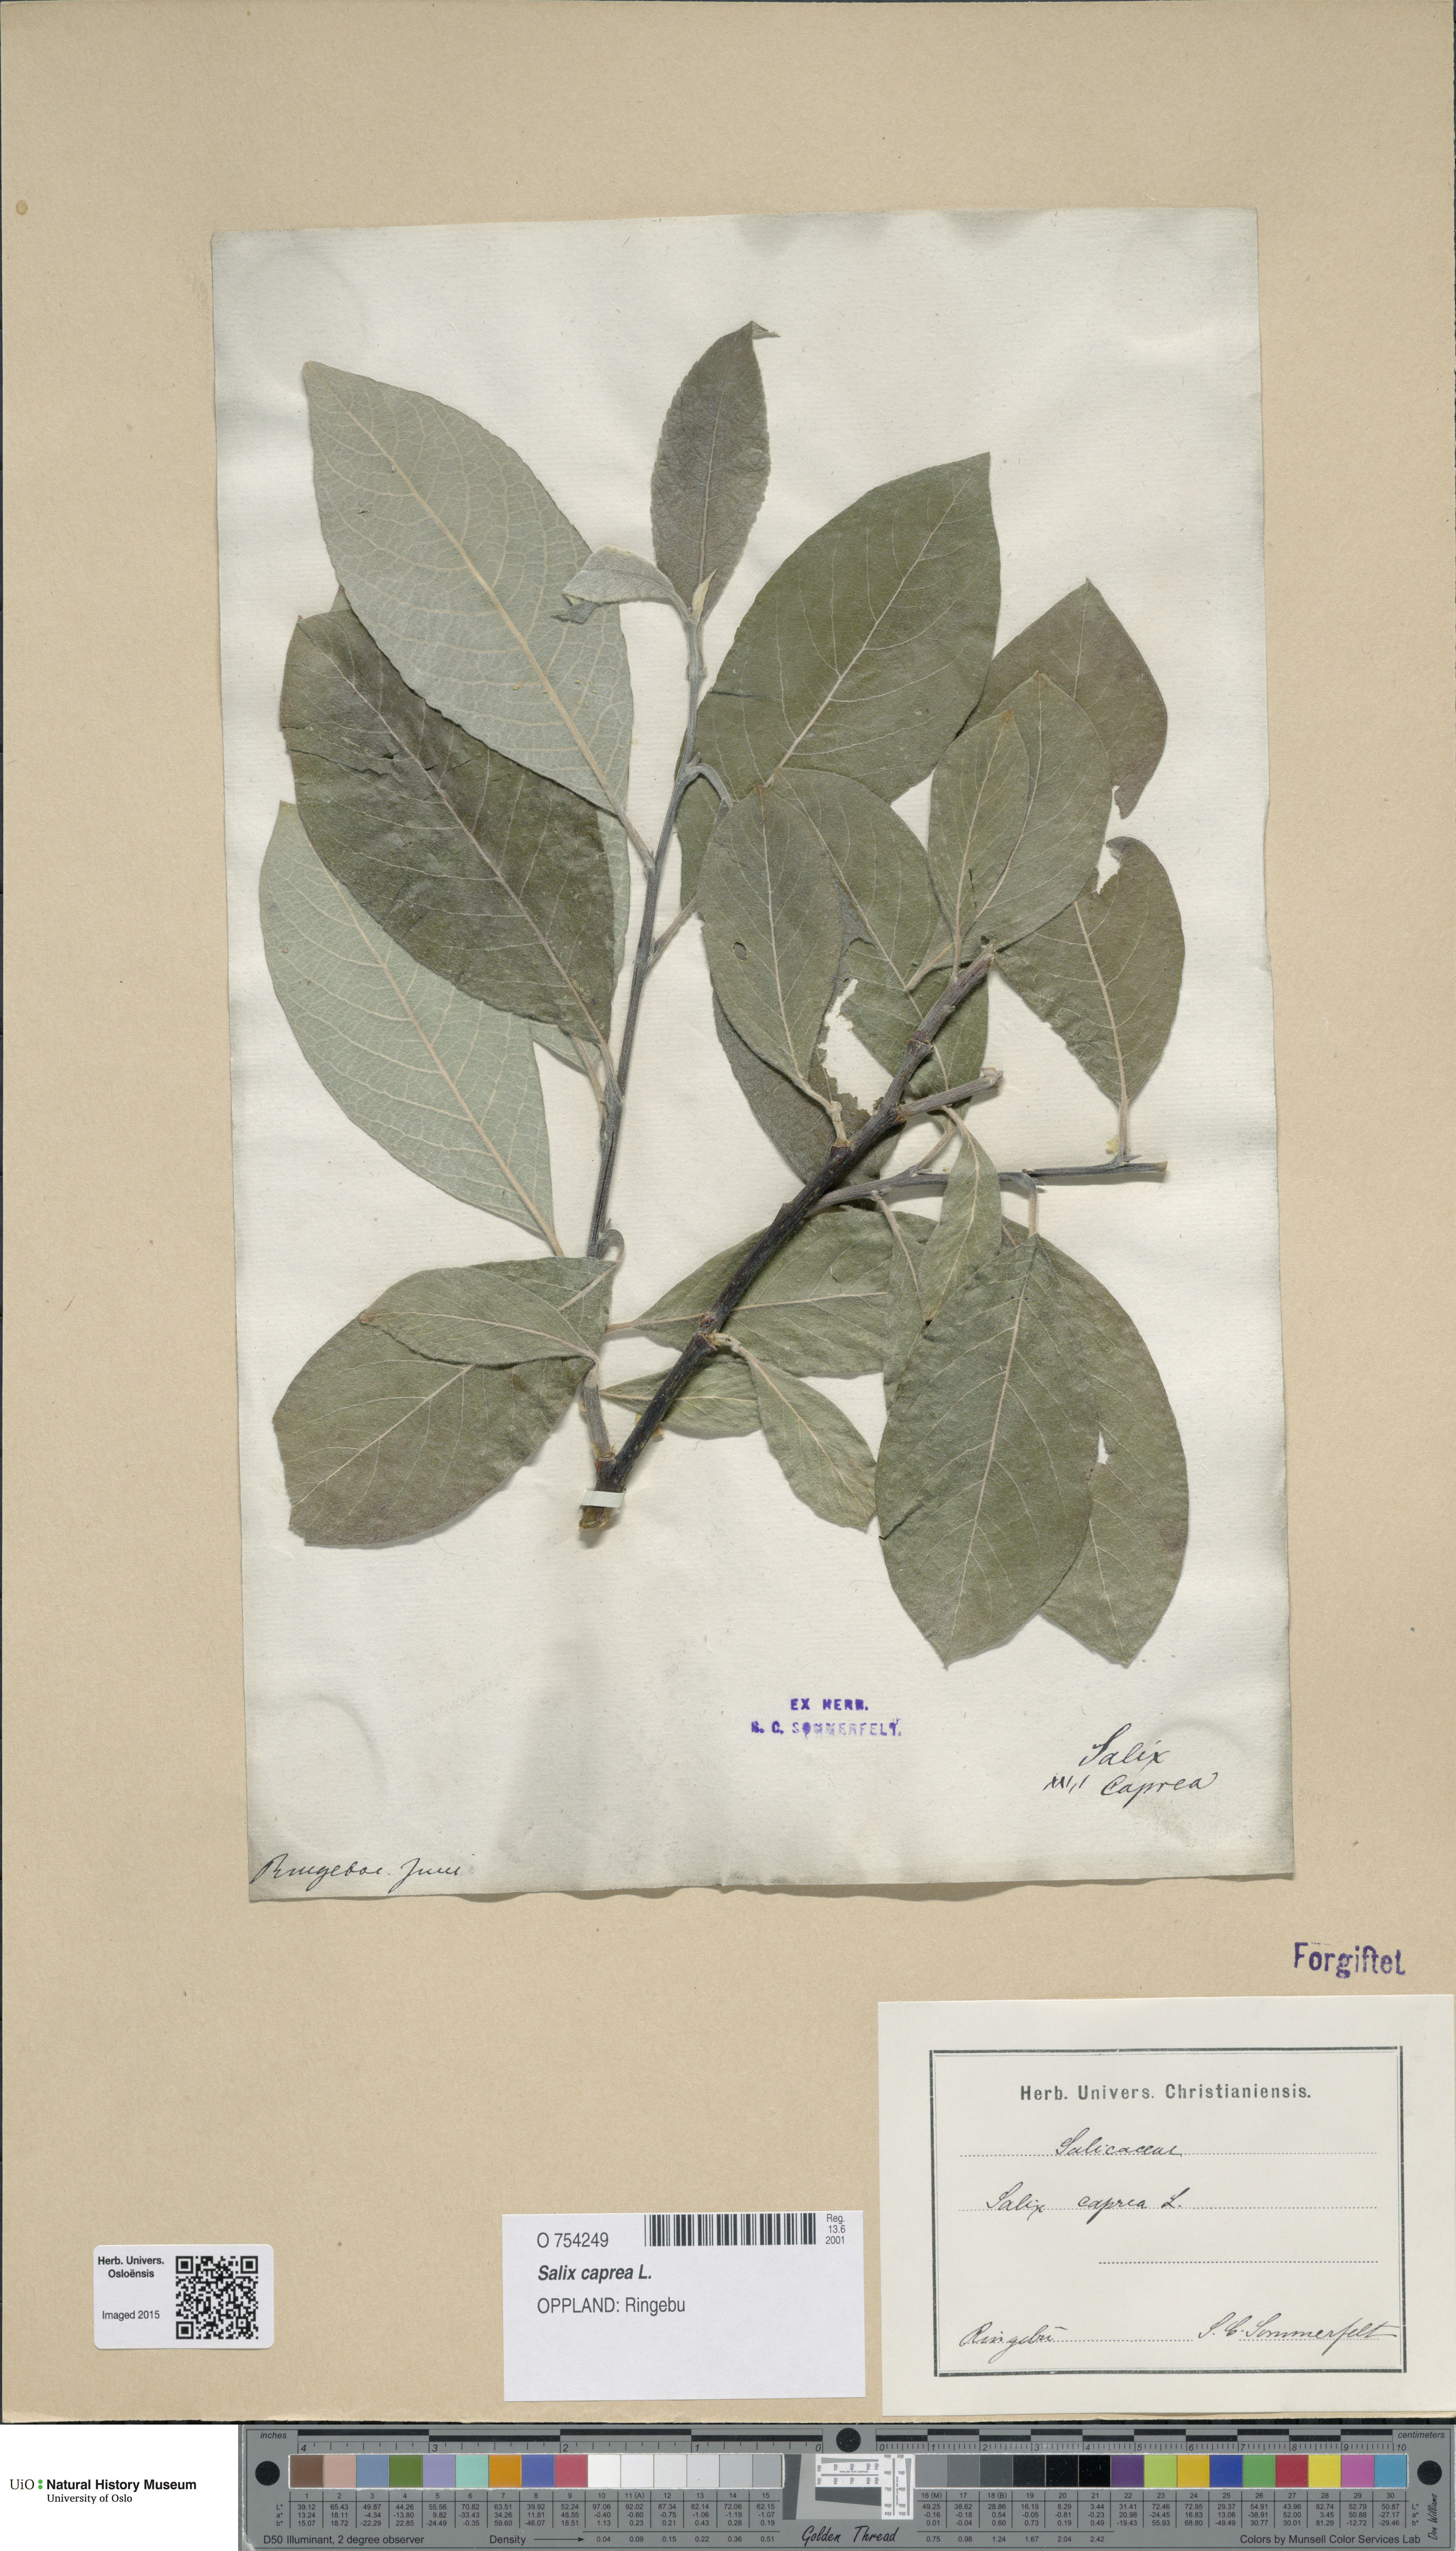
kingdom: Plantae
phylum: Tracheophyta
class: Magnoliopsida
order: Malpighiales
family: Salicaceae
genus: Salix
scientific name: Salix caprea
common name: Goat willow
